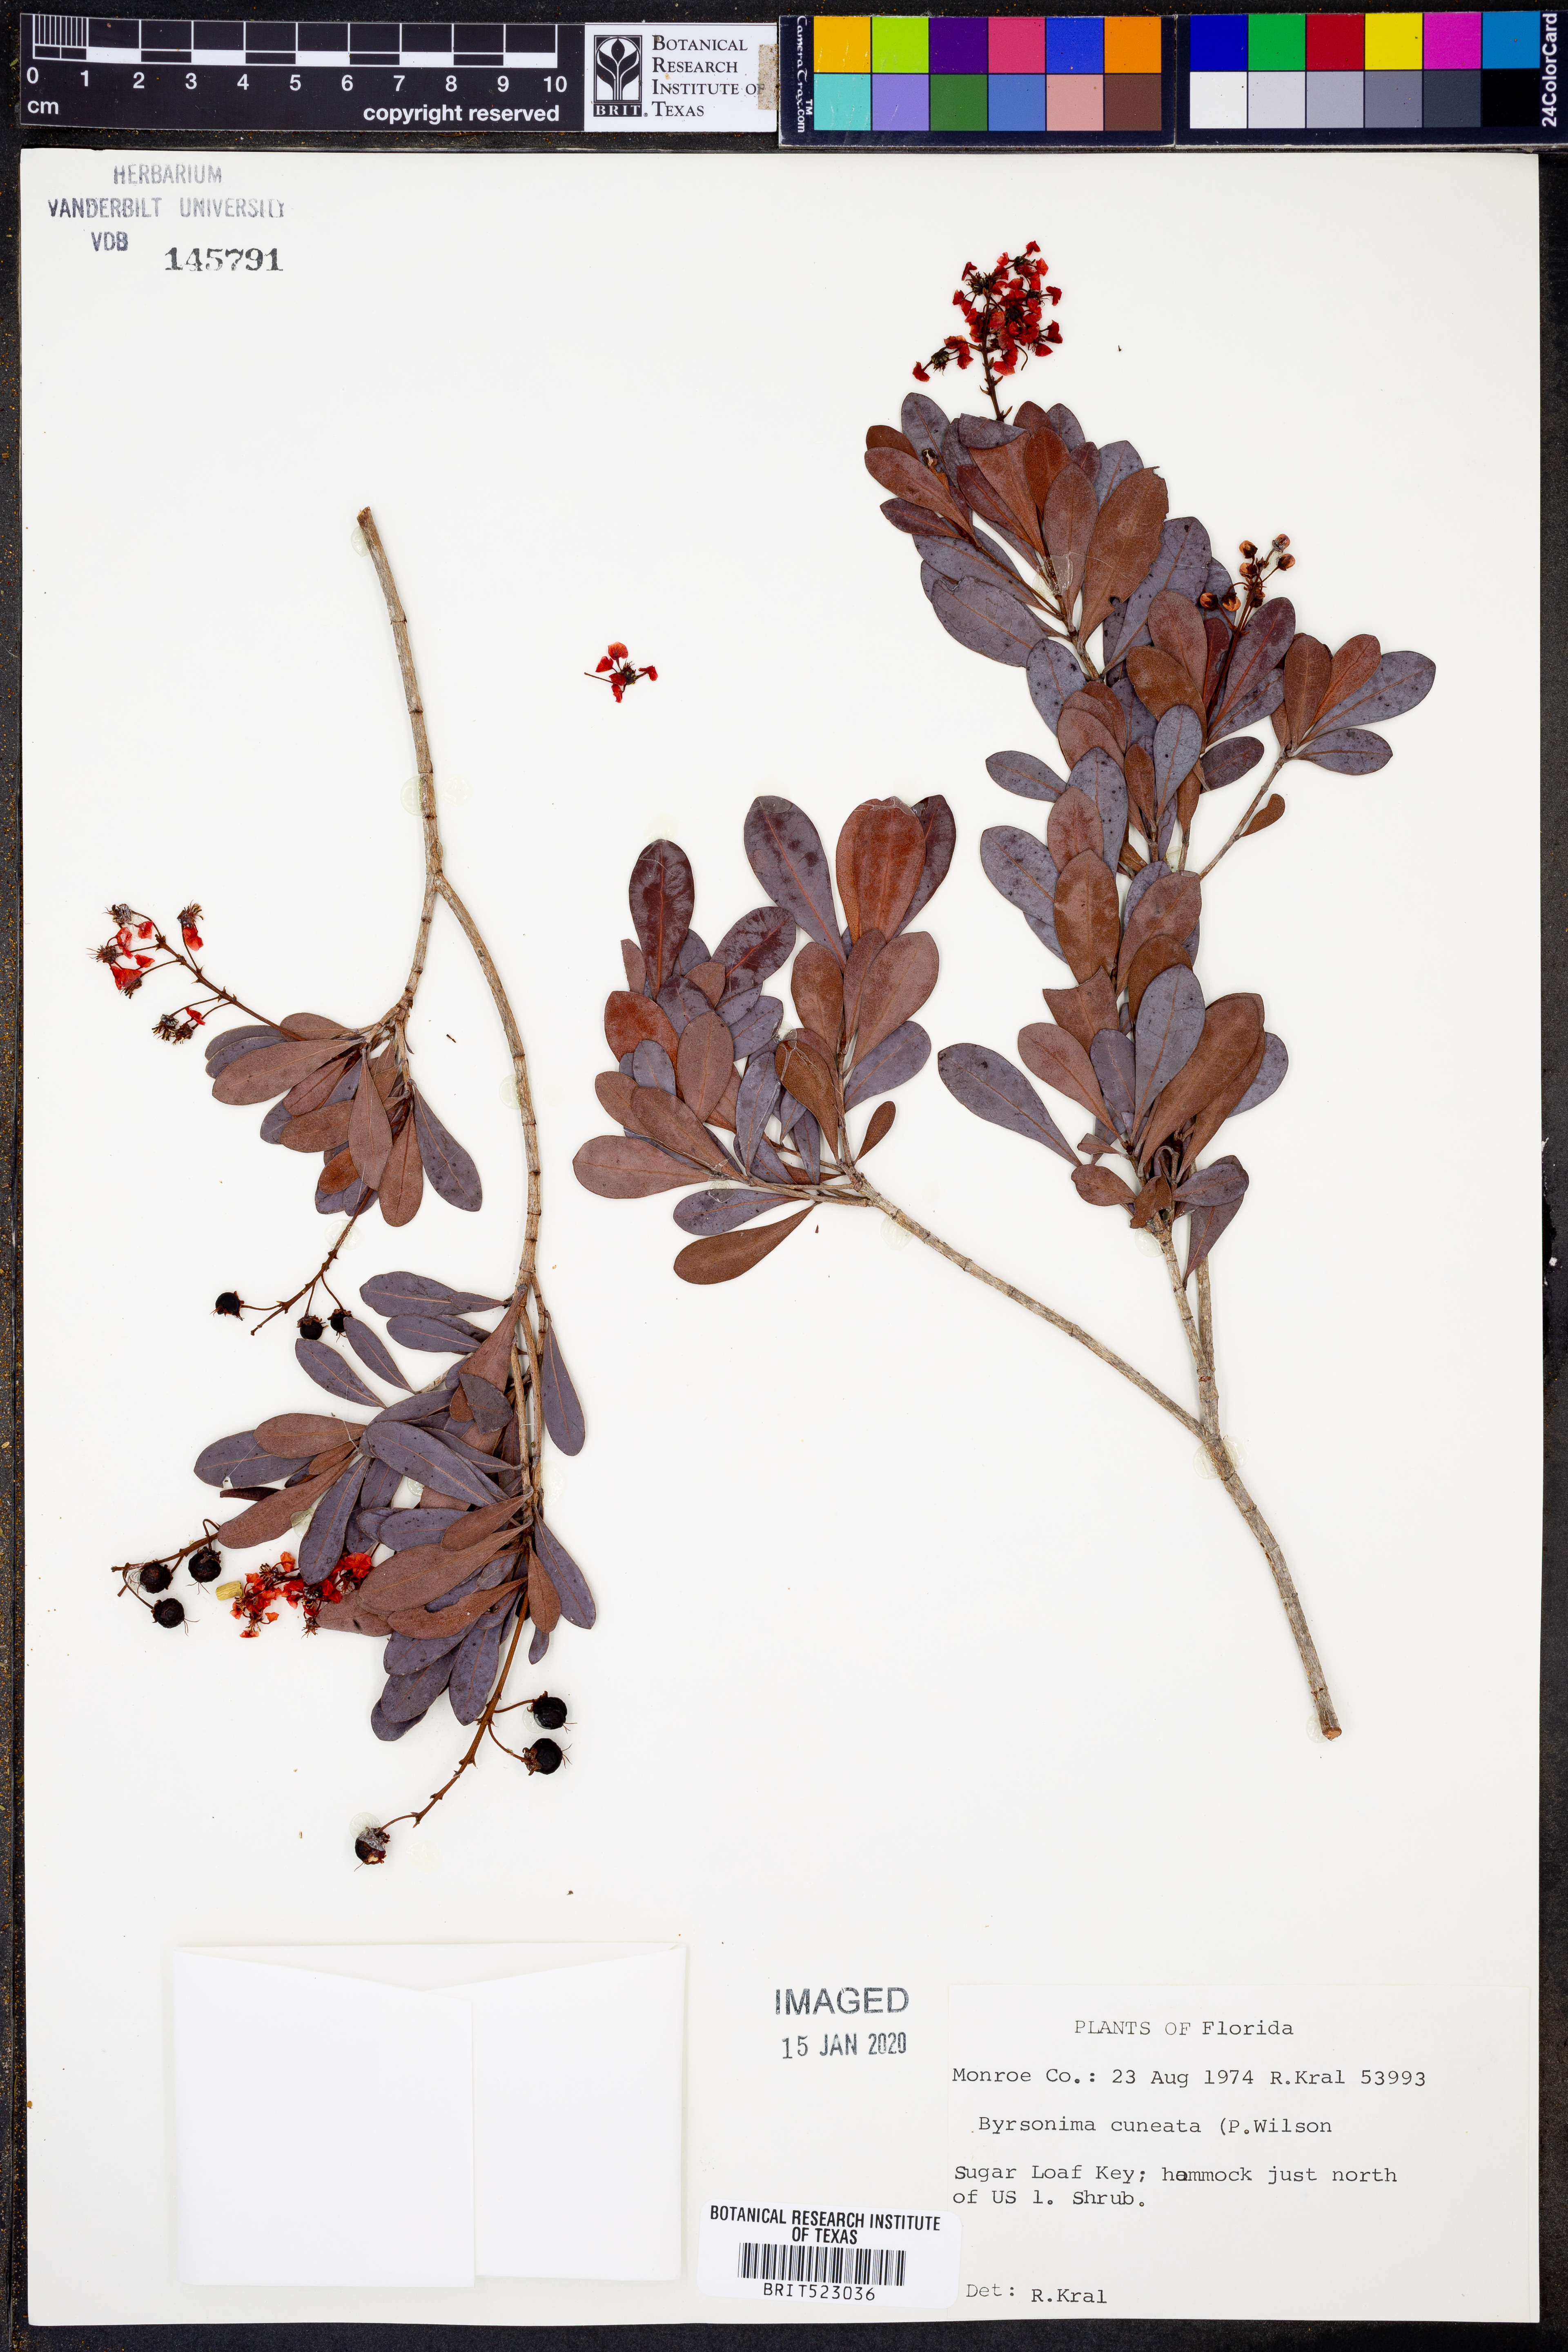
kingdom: Plantae
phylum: Tracheophyta
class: Magnoliopsida
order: Malpighiales
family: Malpighiaceae
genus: Byrsonima
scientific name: Byrsonima lucida
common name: Clam-cherry
